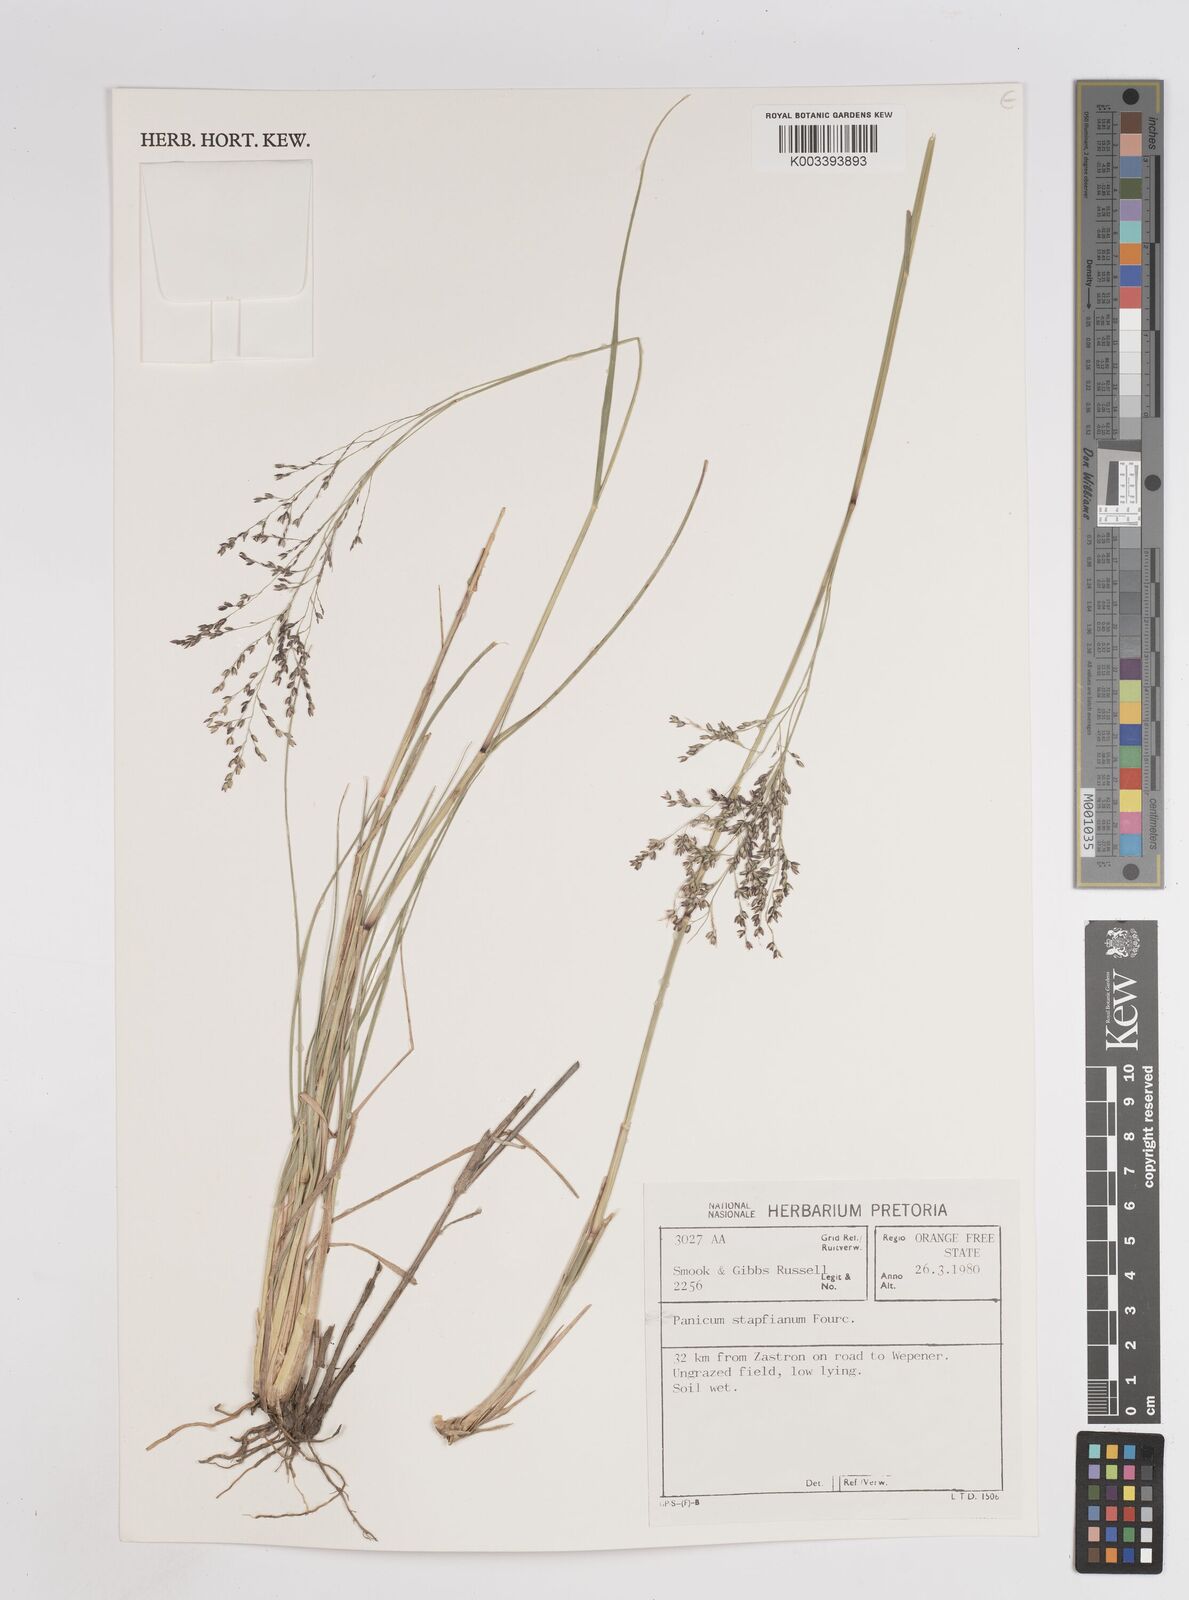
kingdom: Plantae
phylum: Tracheophyta
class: Liliopsida
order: Poales
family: Poaceae
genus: Panicum
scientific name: Panicum stapfianum
